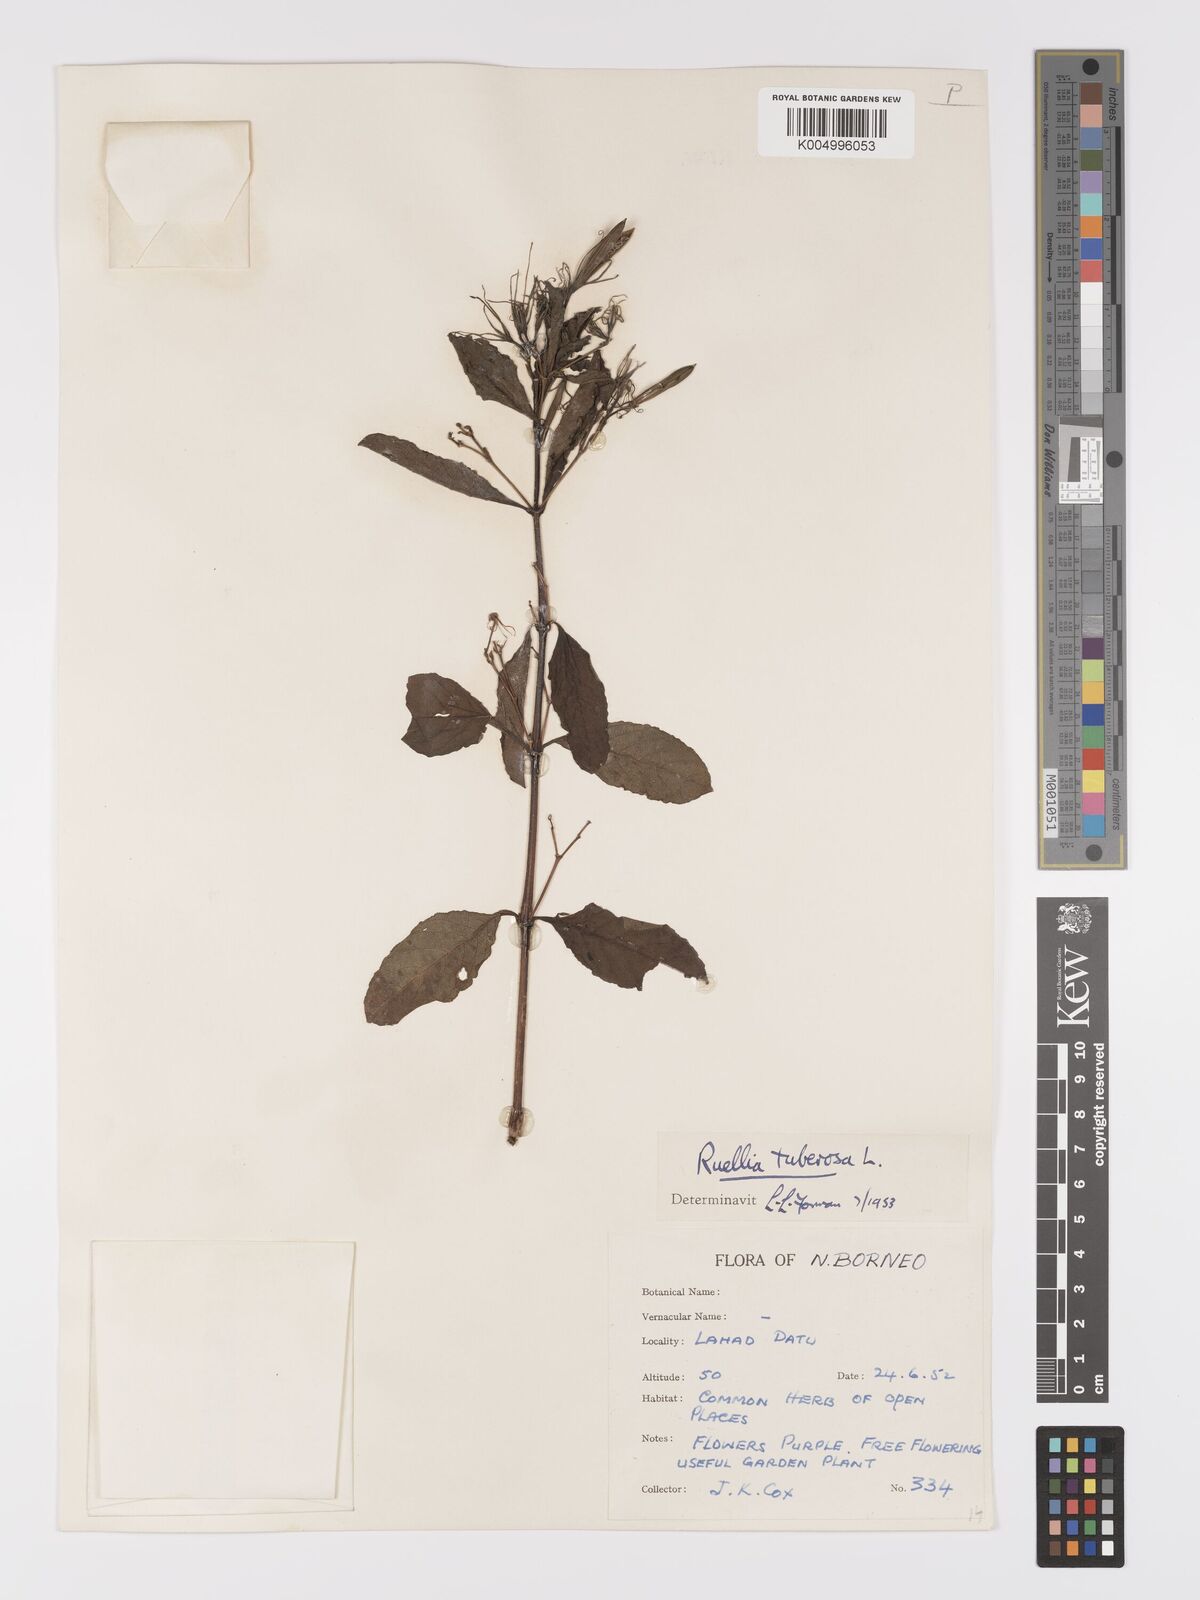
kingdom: Plantae
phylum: Tracheophyta
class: Magnoliopsida
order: Lamiales
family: Acanthaceae
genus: Ruellia
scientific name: Ruellia tuberosa
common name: Devil's bit
